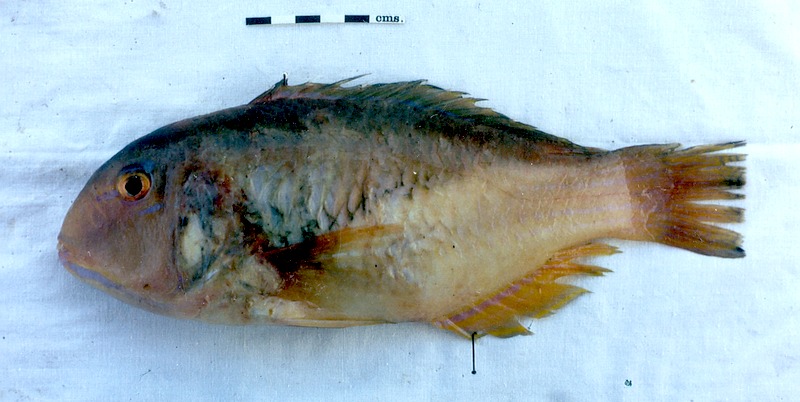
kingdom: Animalia
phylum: Chordata
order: Perciformes
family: Labridae
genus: Choerodon
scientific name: Choerodon robustus
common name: Robust tuskfish
